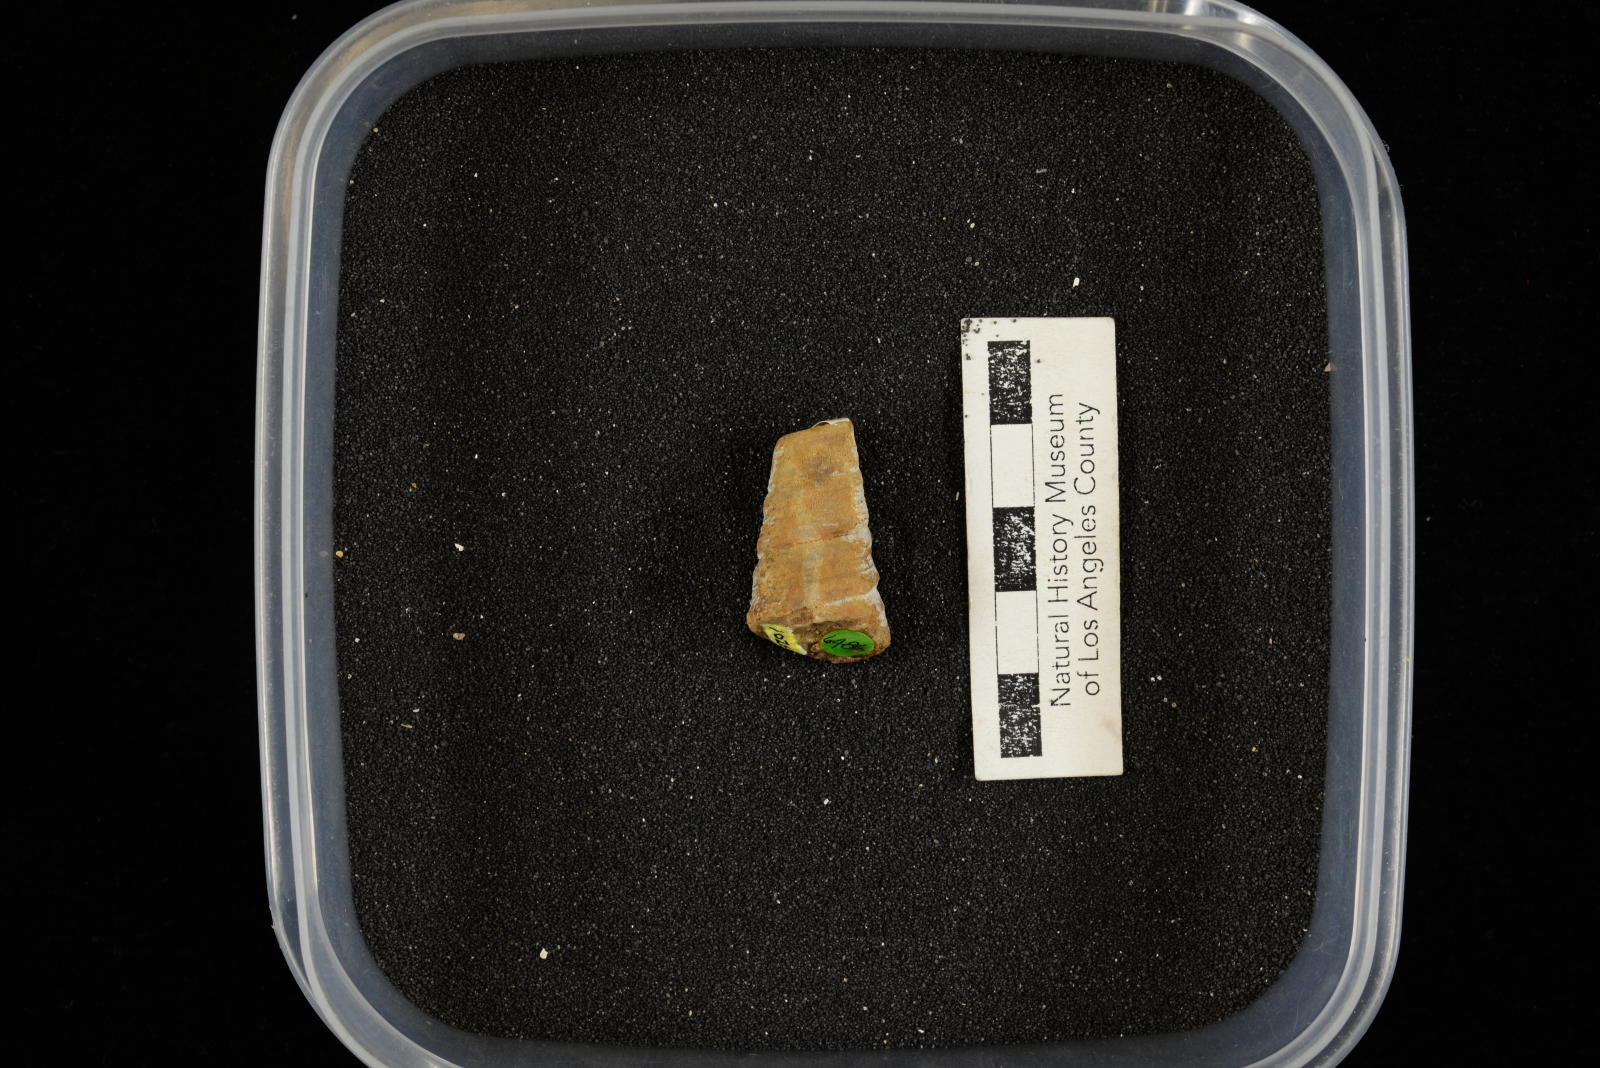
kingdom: Animalia
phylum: Mollusca
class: Gastropoda
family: Turritellidae
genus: Turritella
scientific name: Turritella chaneyi
